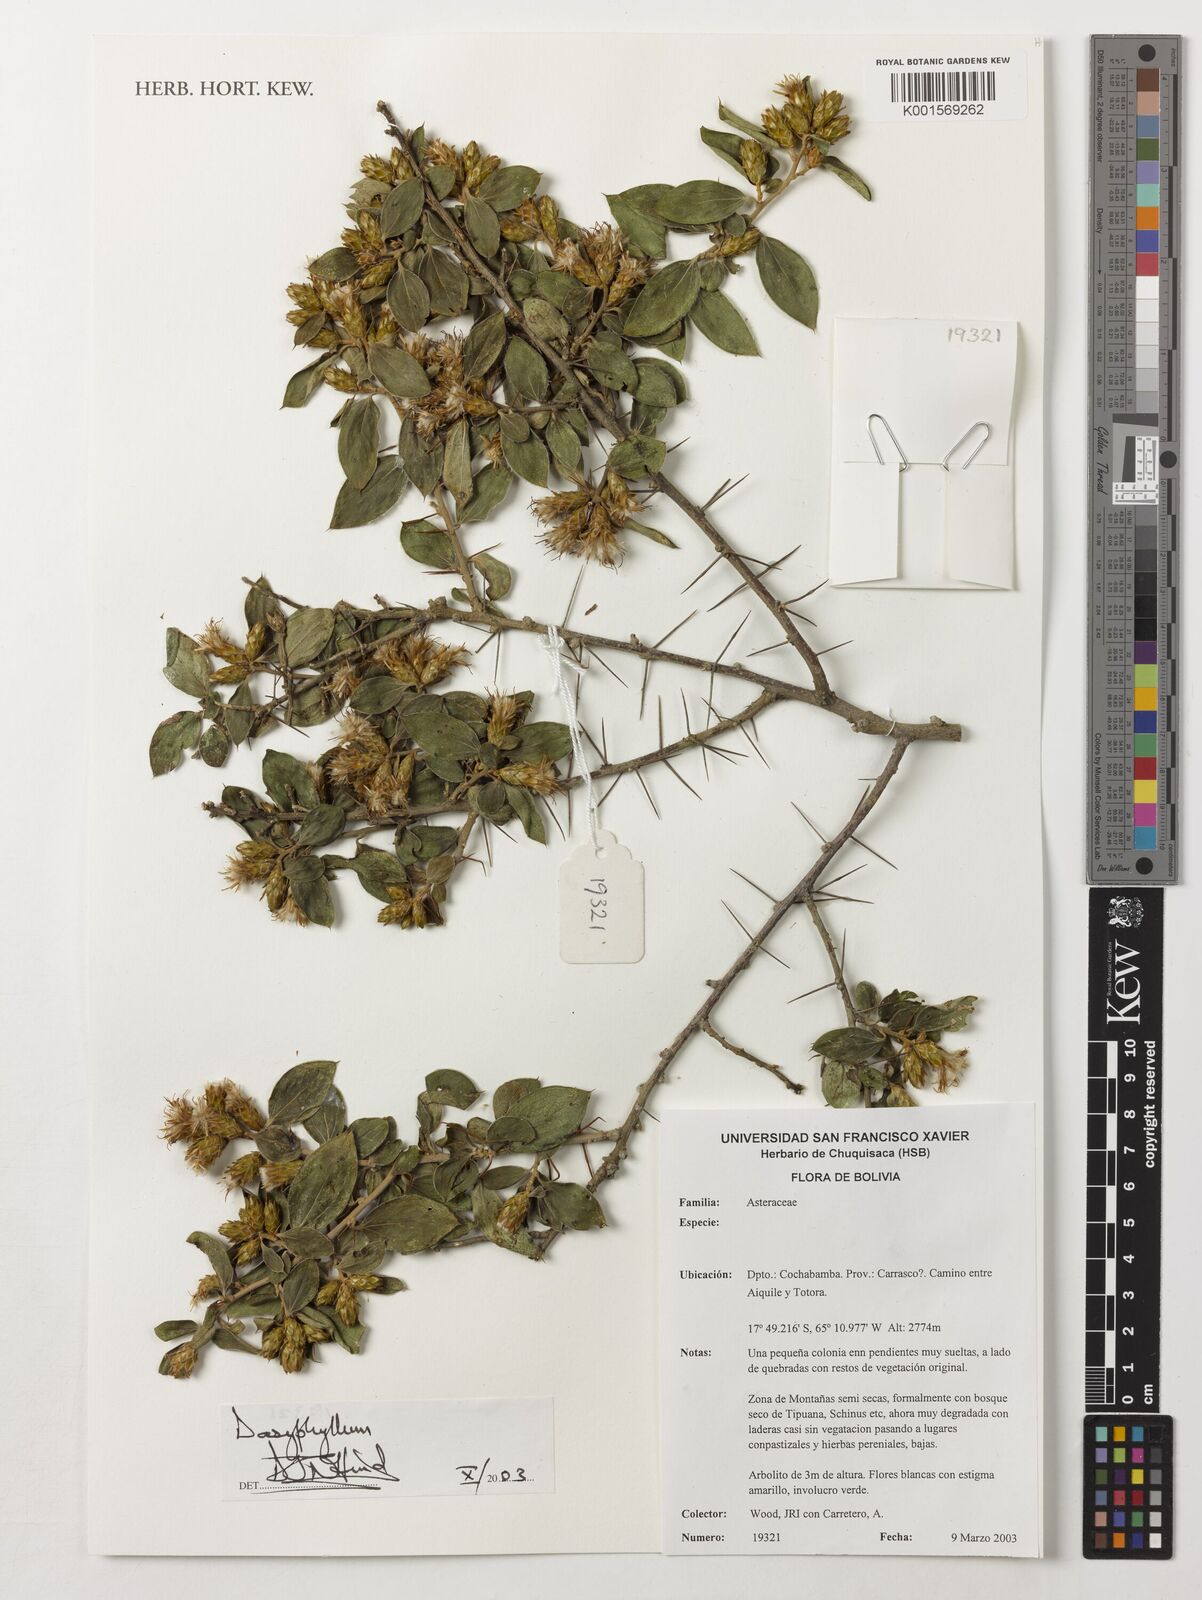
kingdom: Plantae
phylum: Tracheophyta
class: Magnoliopsida
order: Asterales
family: Asteraceae
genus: Dasyphyllum
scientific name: Dasyphyllum
